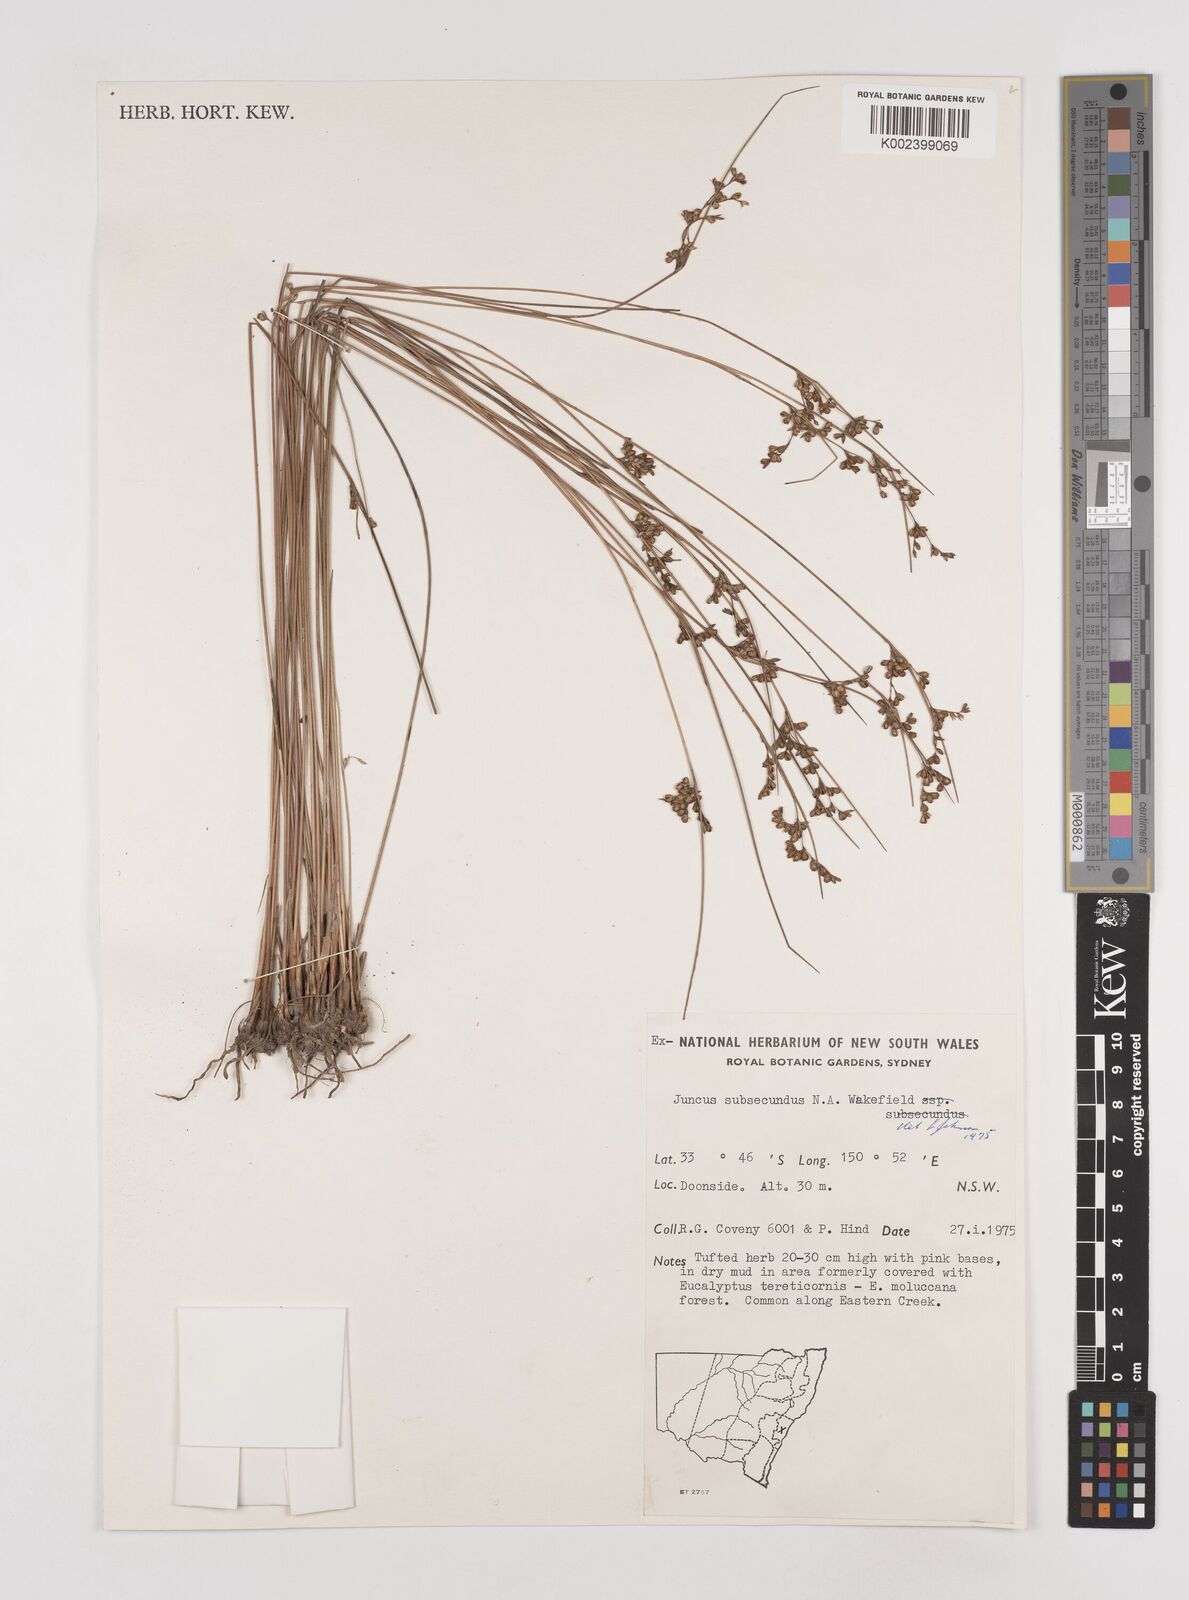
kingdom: Plantae
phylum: Tracheophyta
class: Liliopsida
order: Poales
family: Juncaceae
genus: Juncus
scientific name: Juncus subsecundus
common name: Fingered rush
